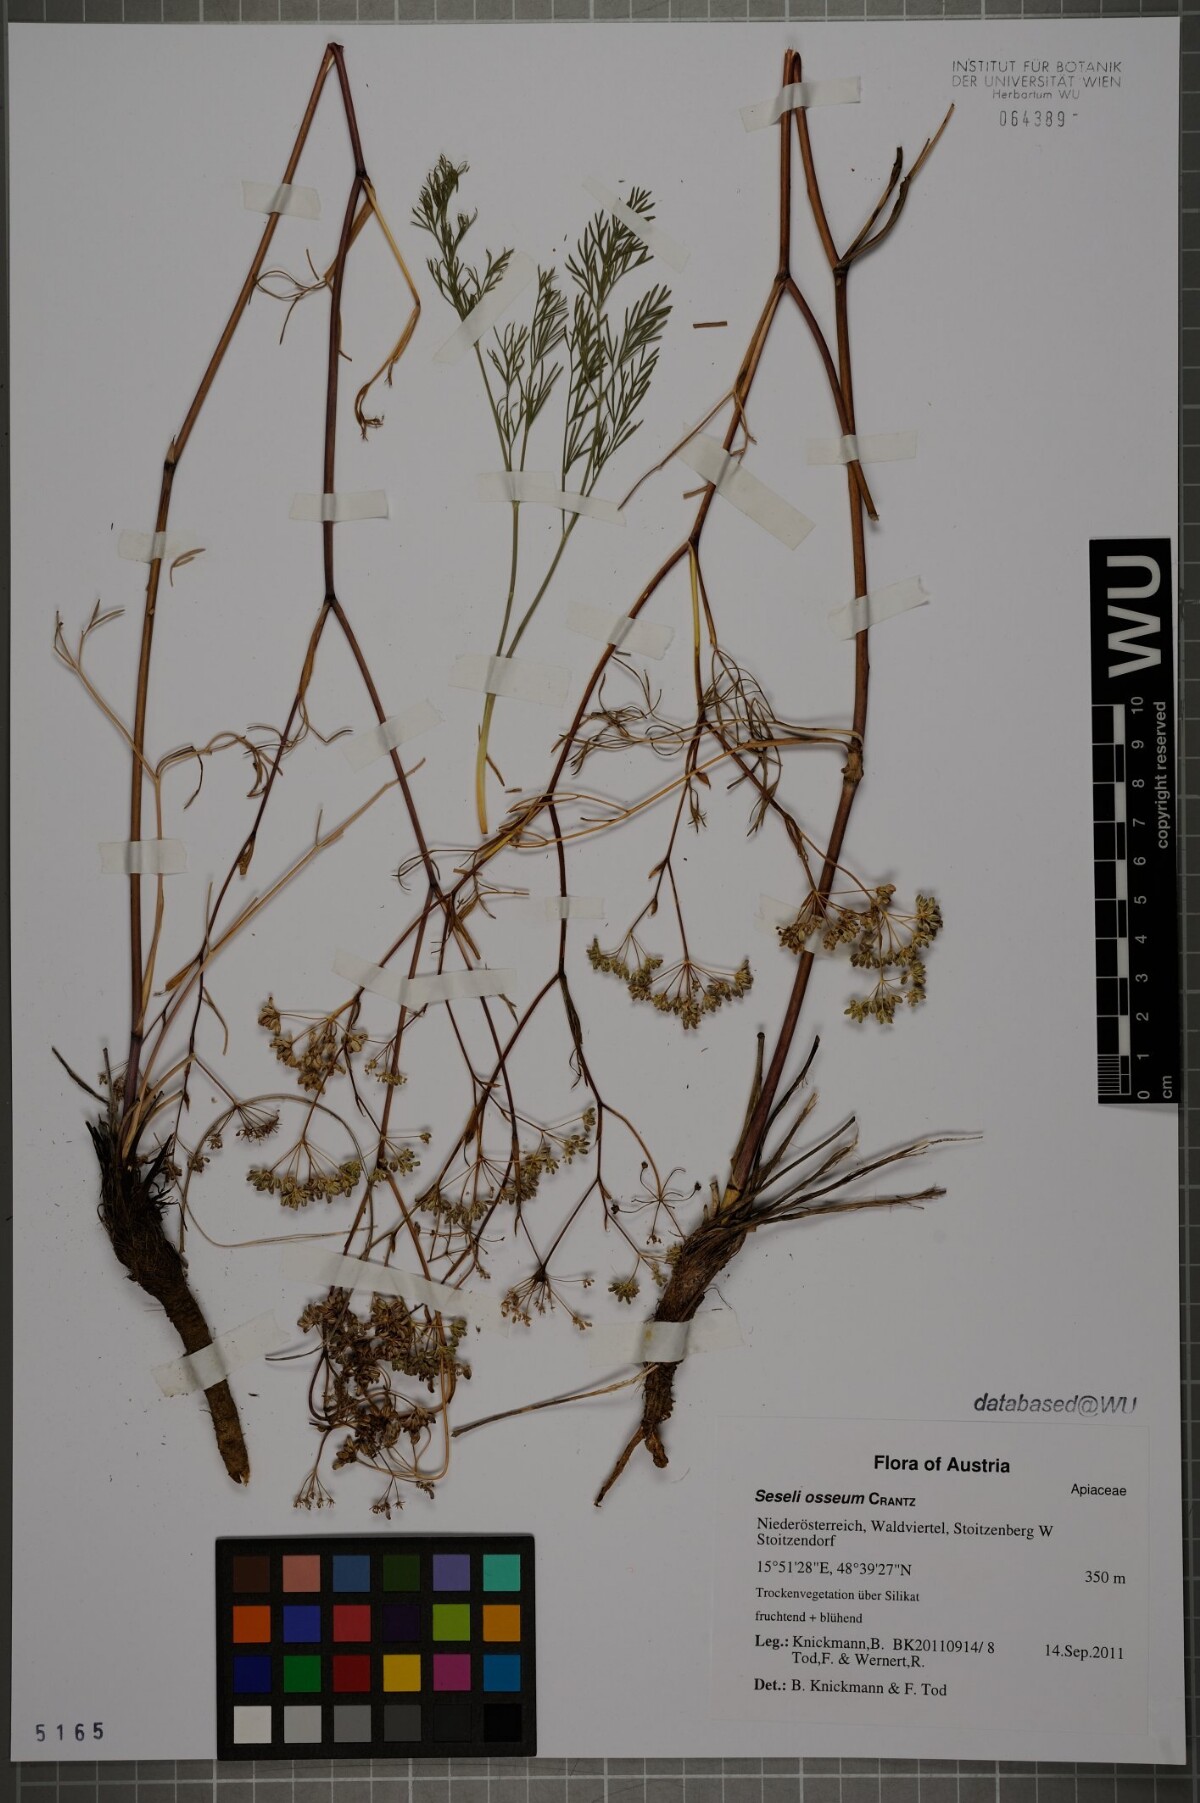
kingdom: Plantae
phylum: Tracheophyta
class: Magnoliopsida
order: Apiales
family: Apiaceae
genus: Seseli
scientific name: Seseli osseum
